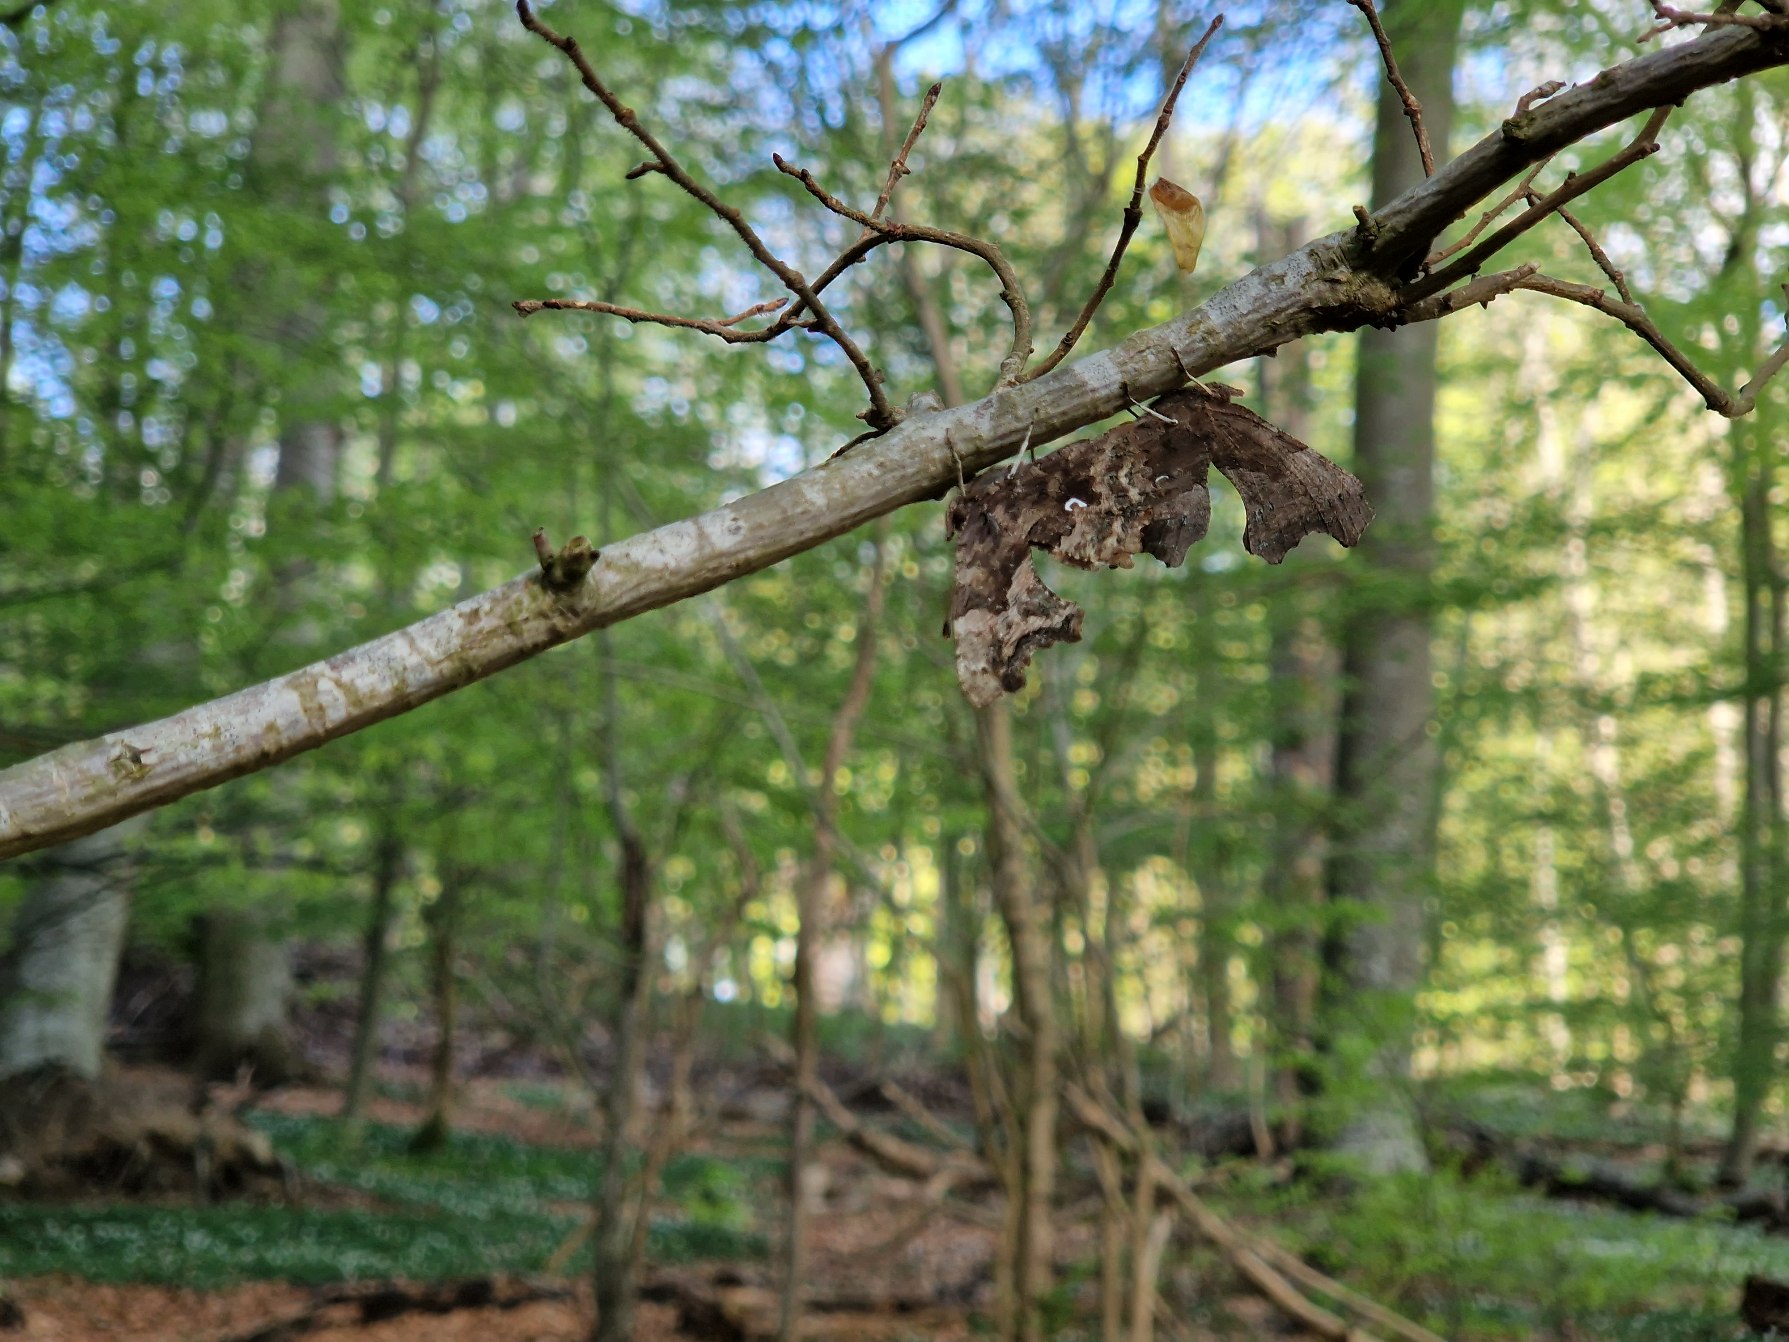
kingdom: Animalia
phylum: Arthropoda
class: Insecta
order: Lepidoptera
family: Nymphalidae
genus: Polygonia
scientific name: Polygonia c-album
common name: Det hvide C
